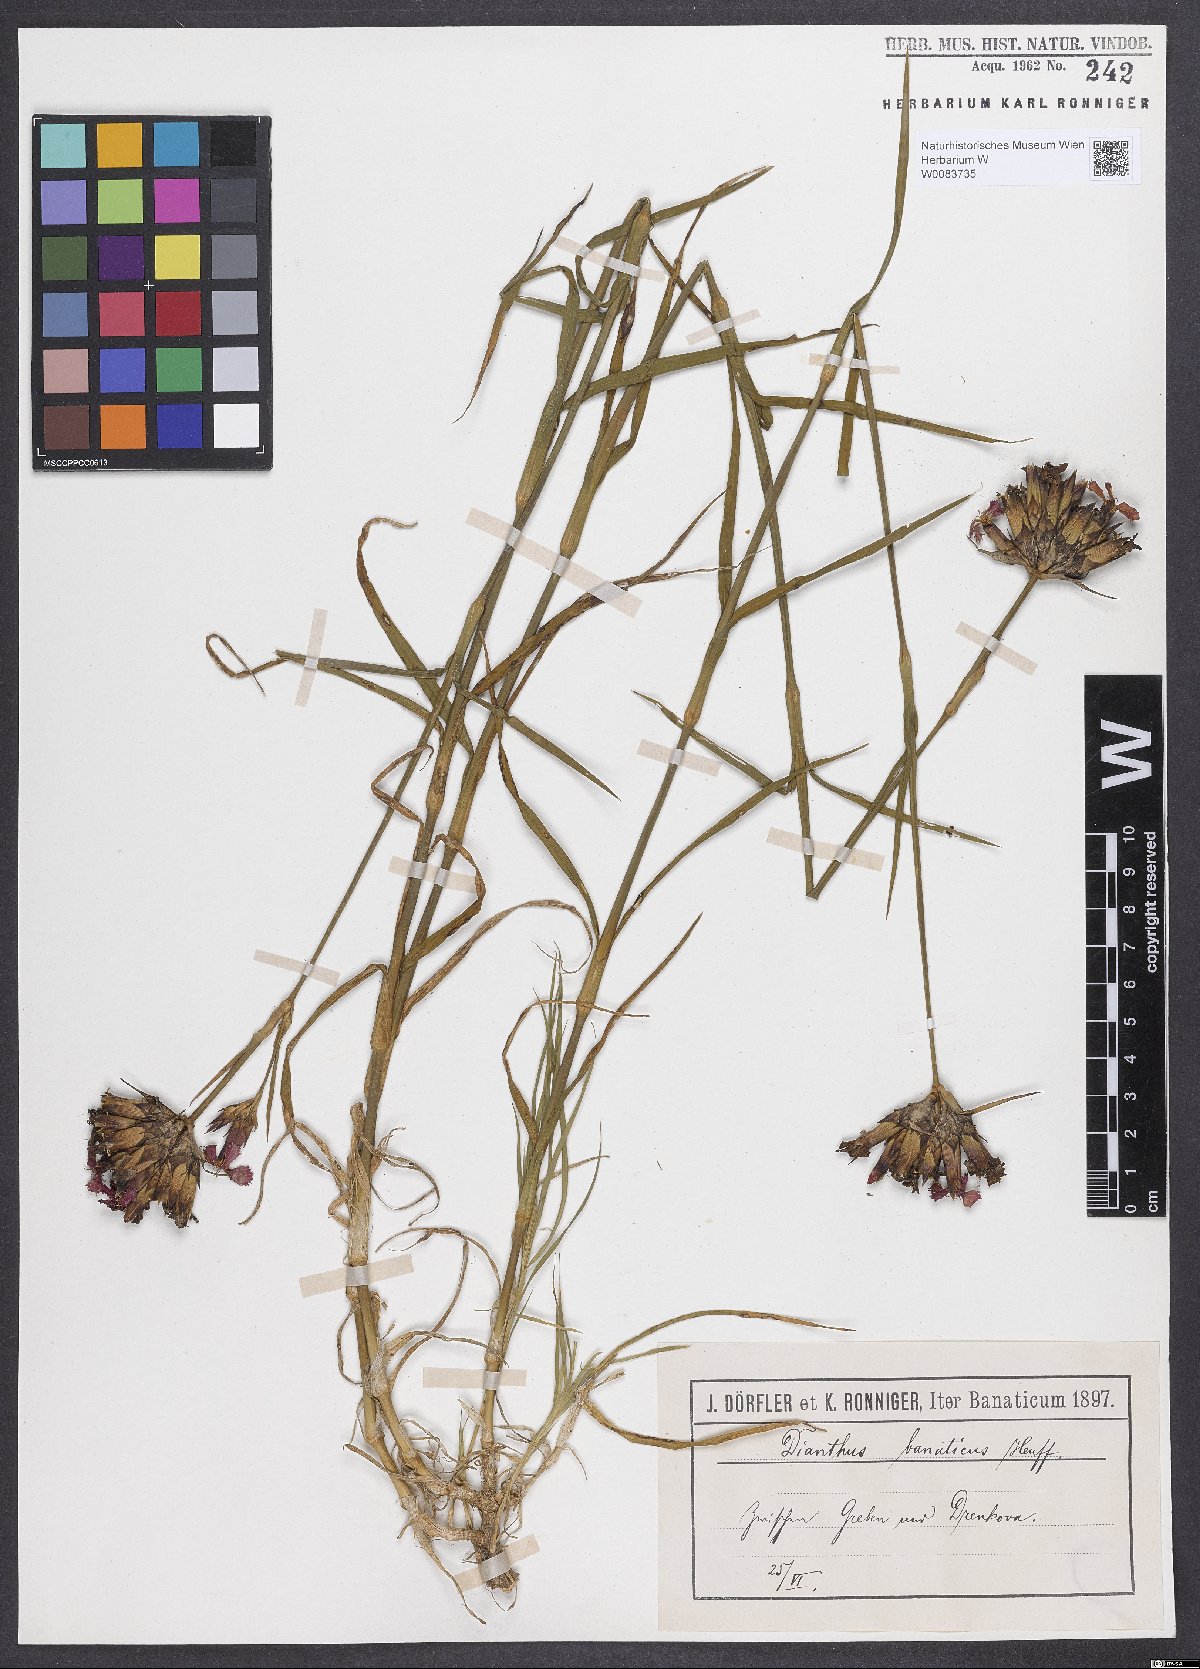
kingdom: Plantae
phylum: Tracheophyta
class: Magnoliopsida
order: Caryophyllales
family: Caryophyllaceae
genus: Dianthus
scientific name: Dianthus giganteus
